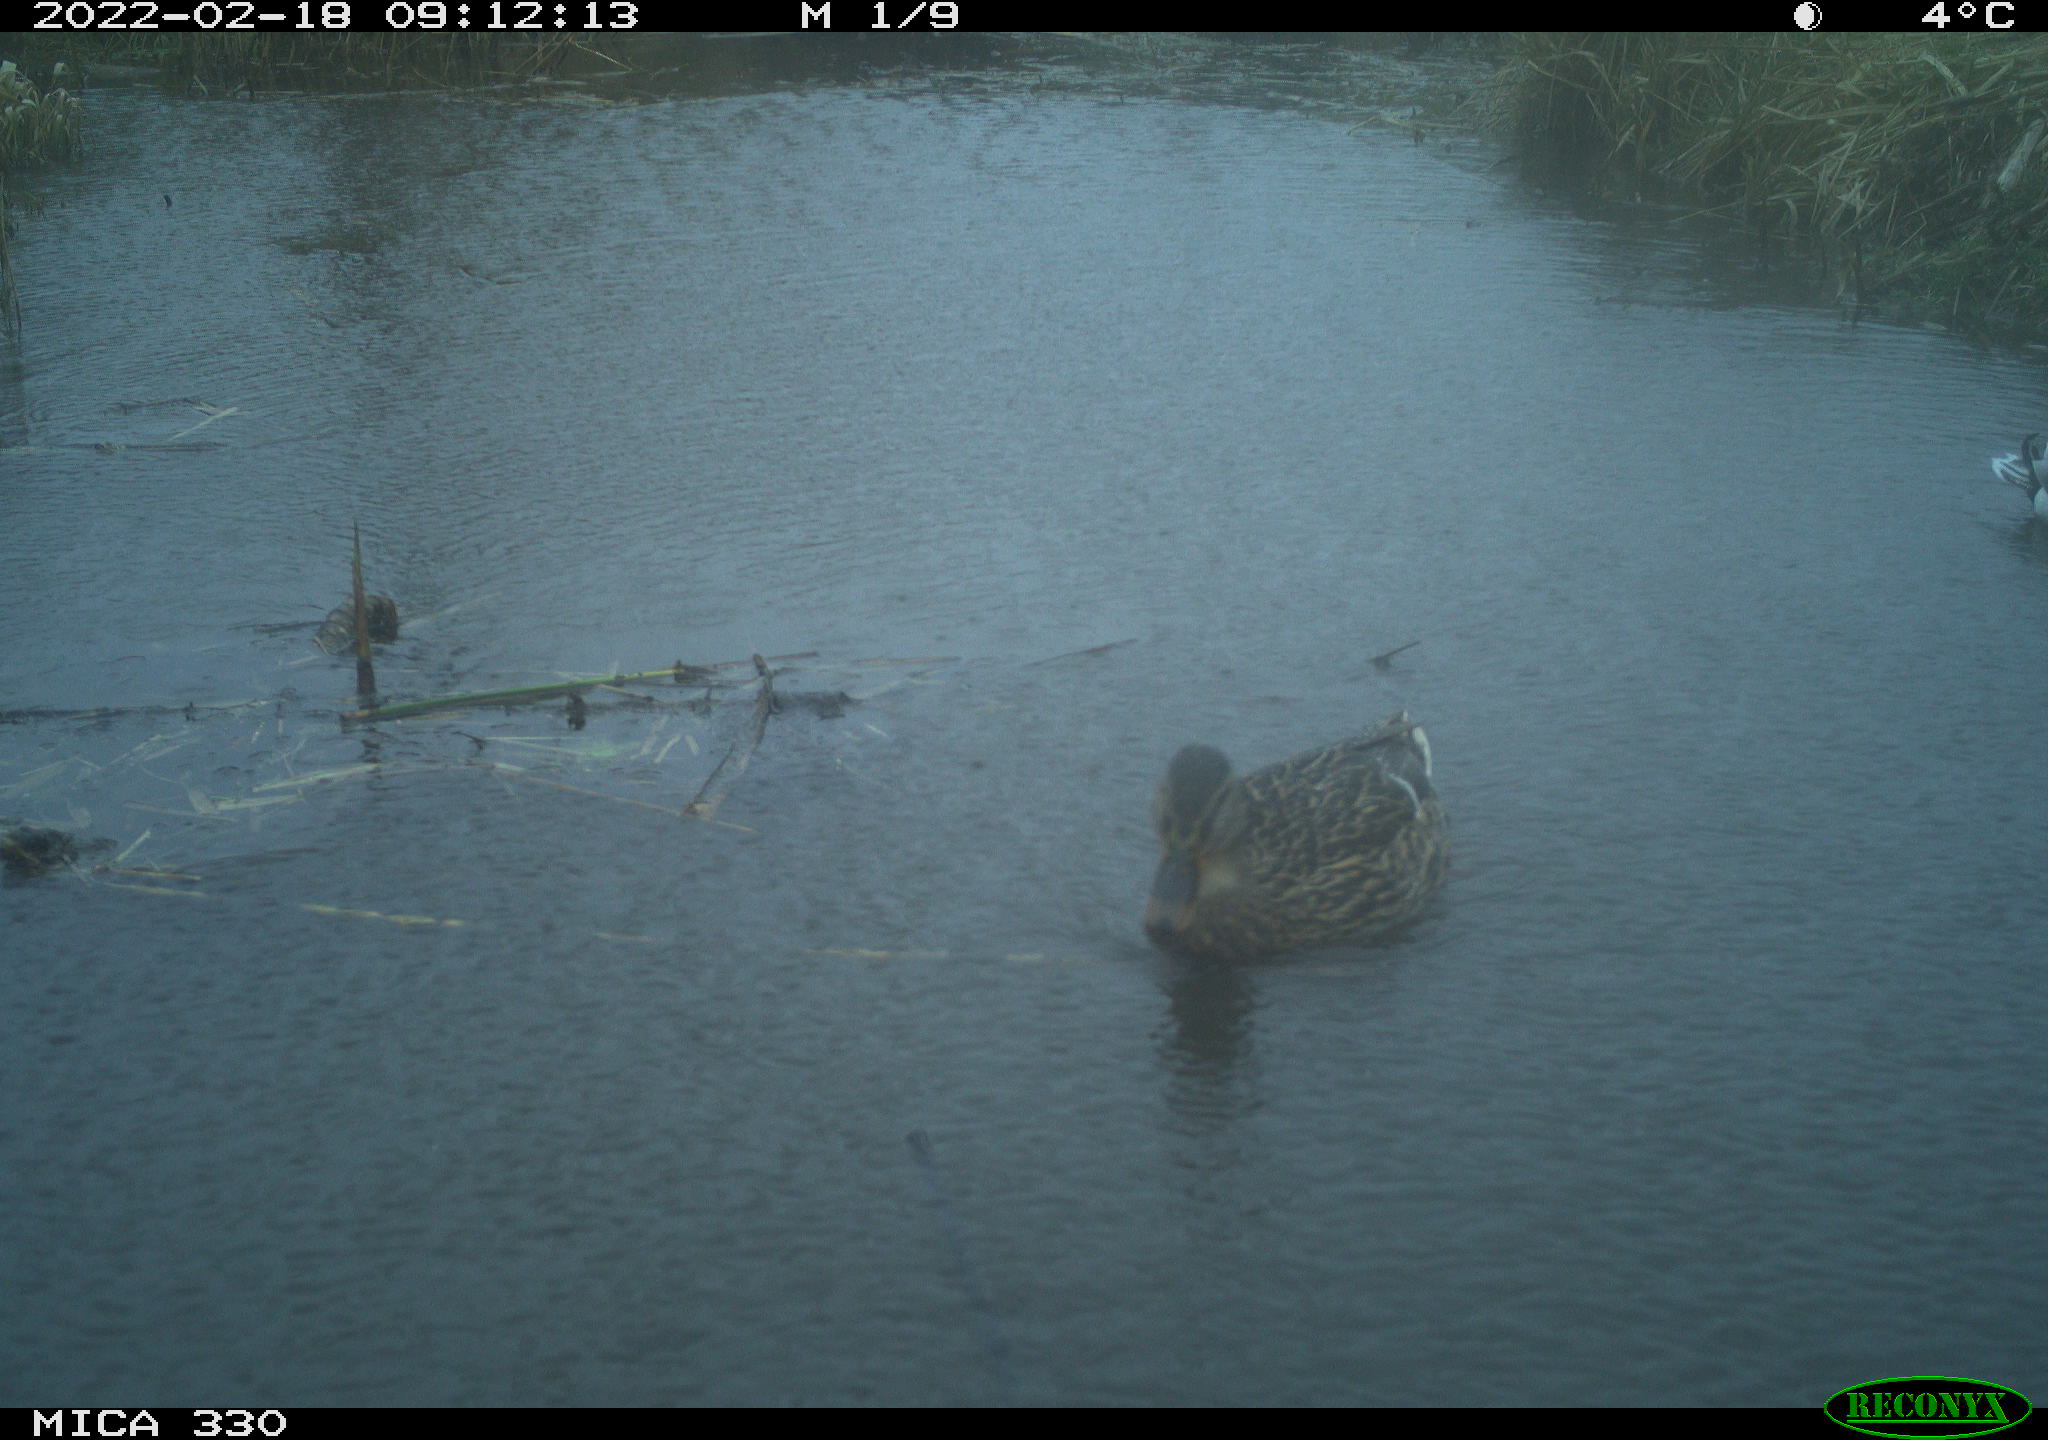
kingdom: Animalia
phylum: Chordata
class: Aves
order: Anseriformes
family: Anatidae
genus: Anas
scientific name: Anas platyrhynchos
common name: Mallard
